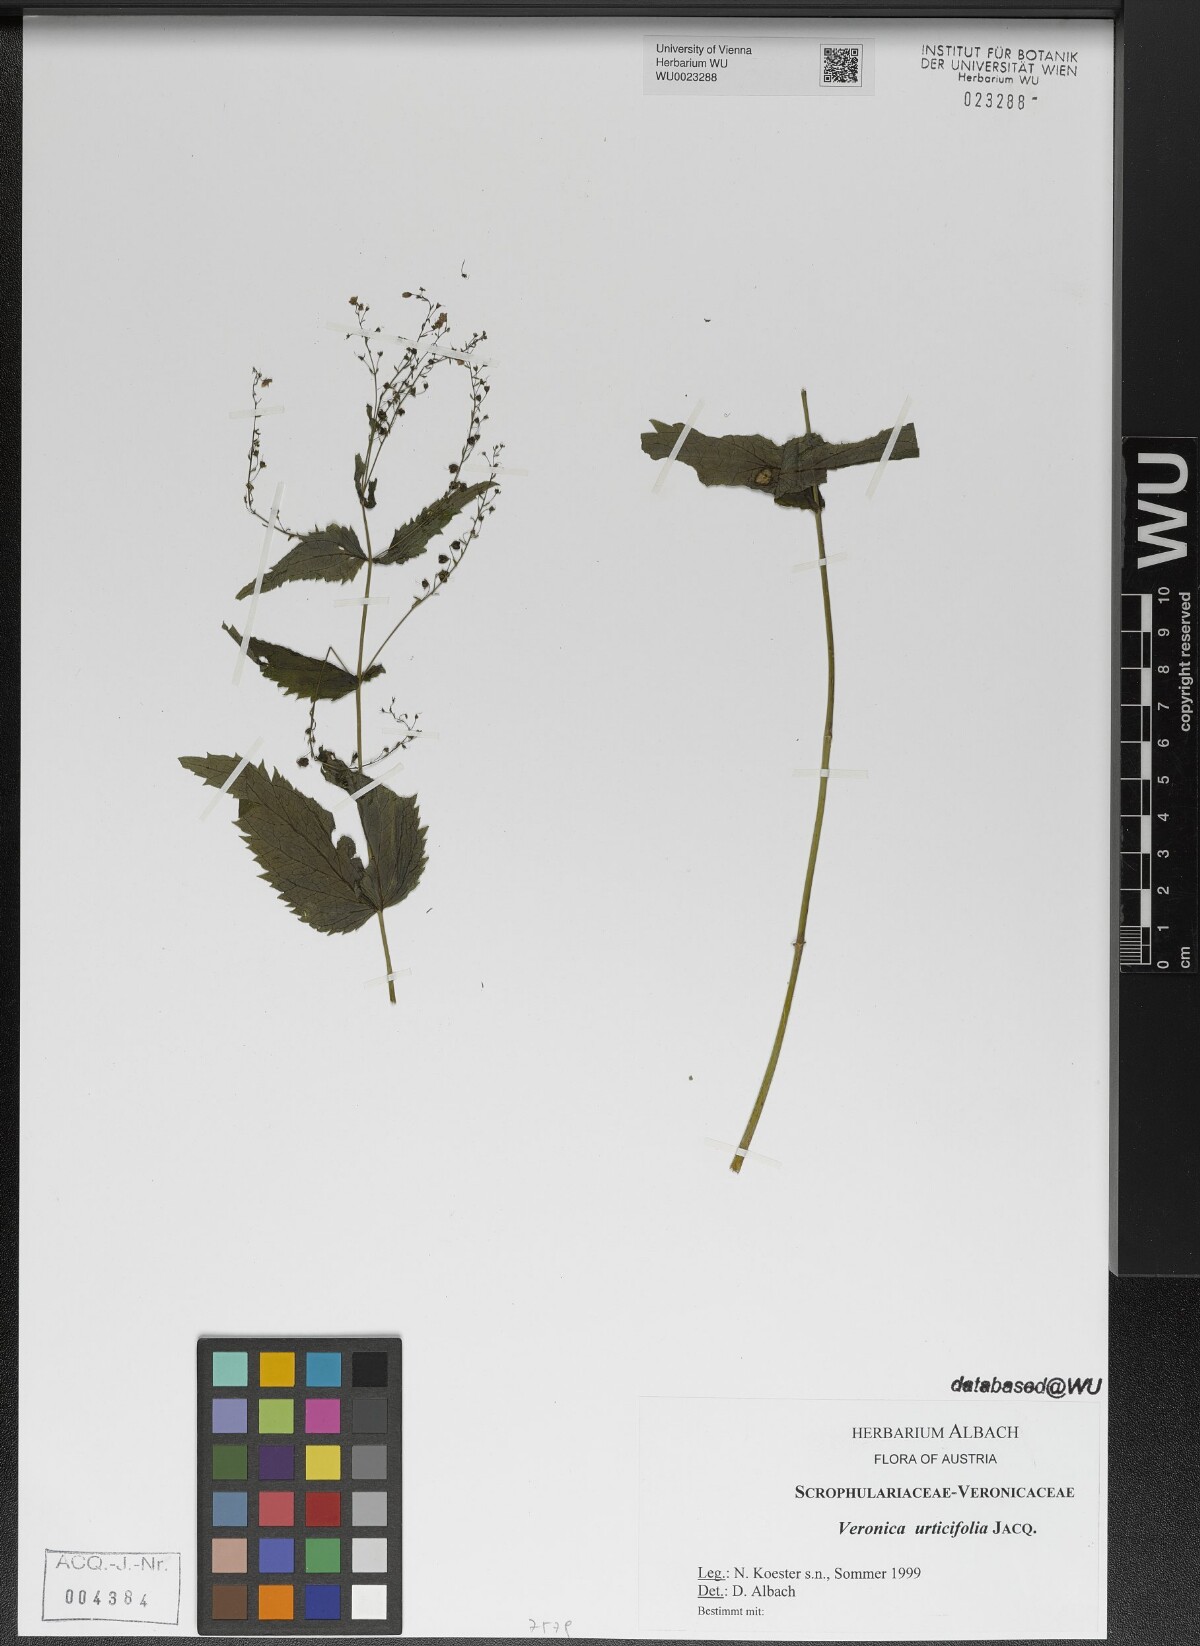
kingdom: Plantae
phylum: Tracheophyta
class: Magnoliopsida
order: Lamiales
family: Plantaginaceae
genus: Veronica
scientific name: Veronica urticifolia
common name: Nettle-leaf speedwell
